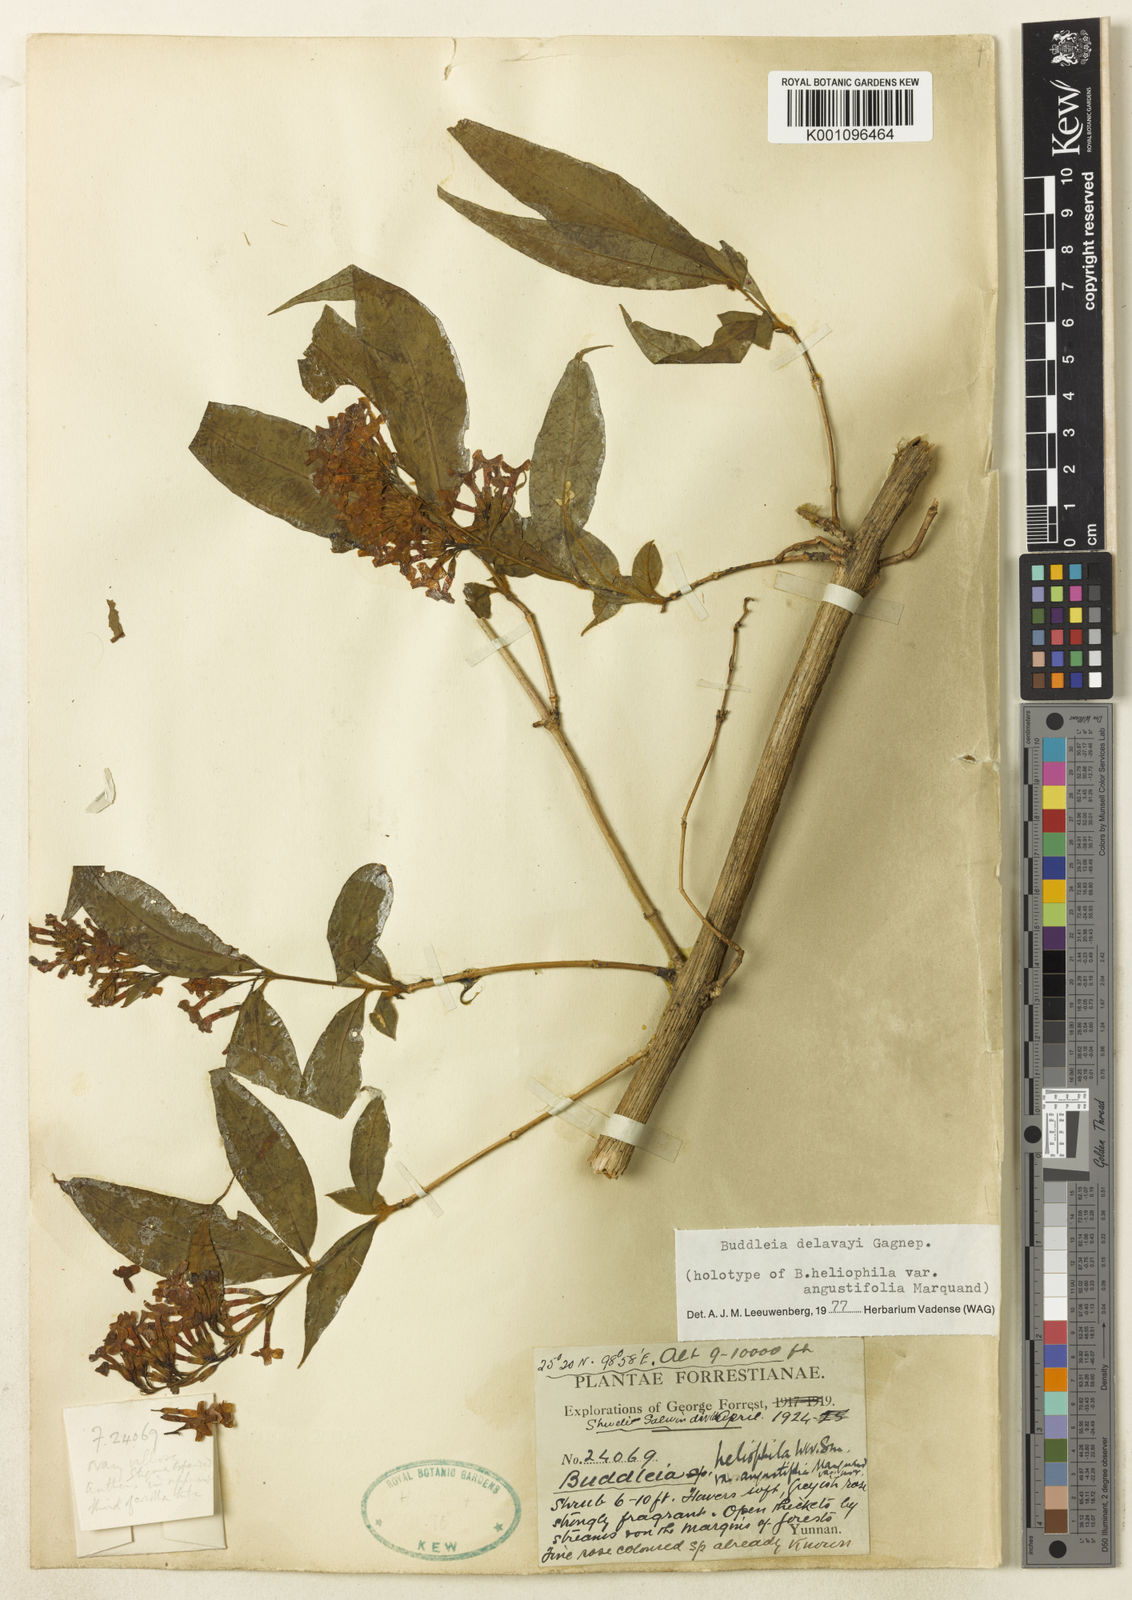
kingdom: Plantae
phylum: Tracheophyta
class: Magnoliopsida
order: Lamiales
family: Scrophulariaceae
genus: Buddleja
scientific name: Buddleja delavayi
